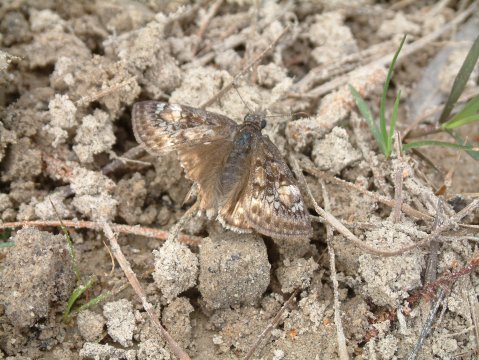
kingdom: Animalia
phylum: Arthropoda
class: Insecta
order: Lepidoptera
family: Hesperiidae
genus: Gesta
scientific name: Gesta
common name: Juvenal's Duskywing
